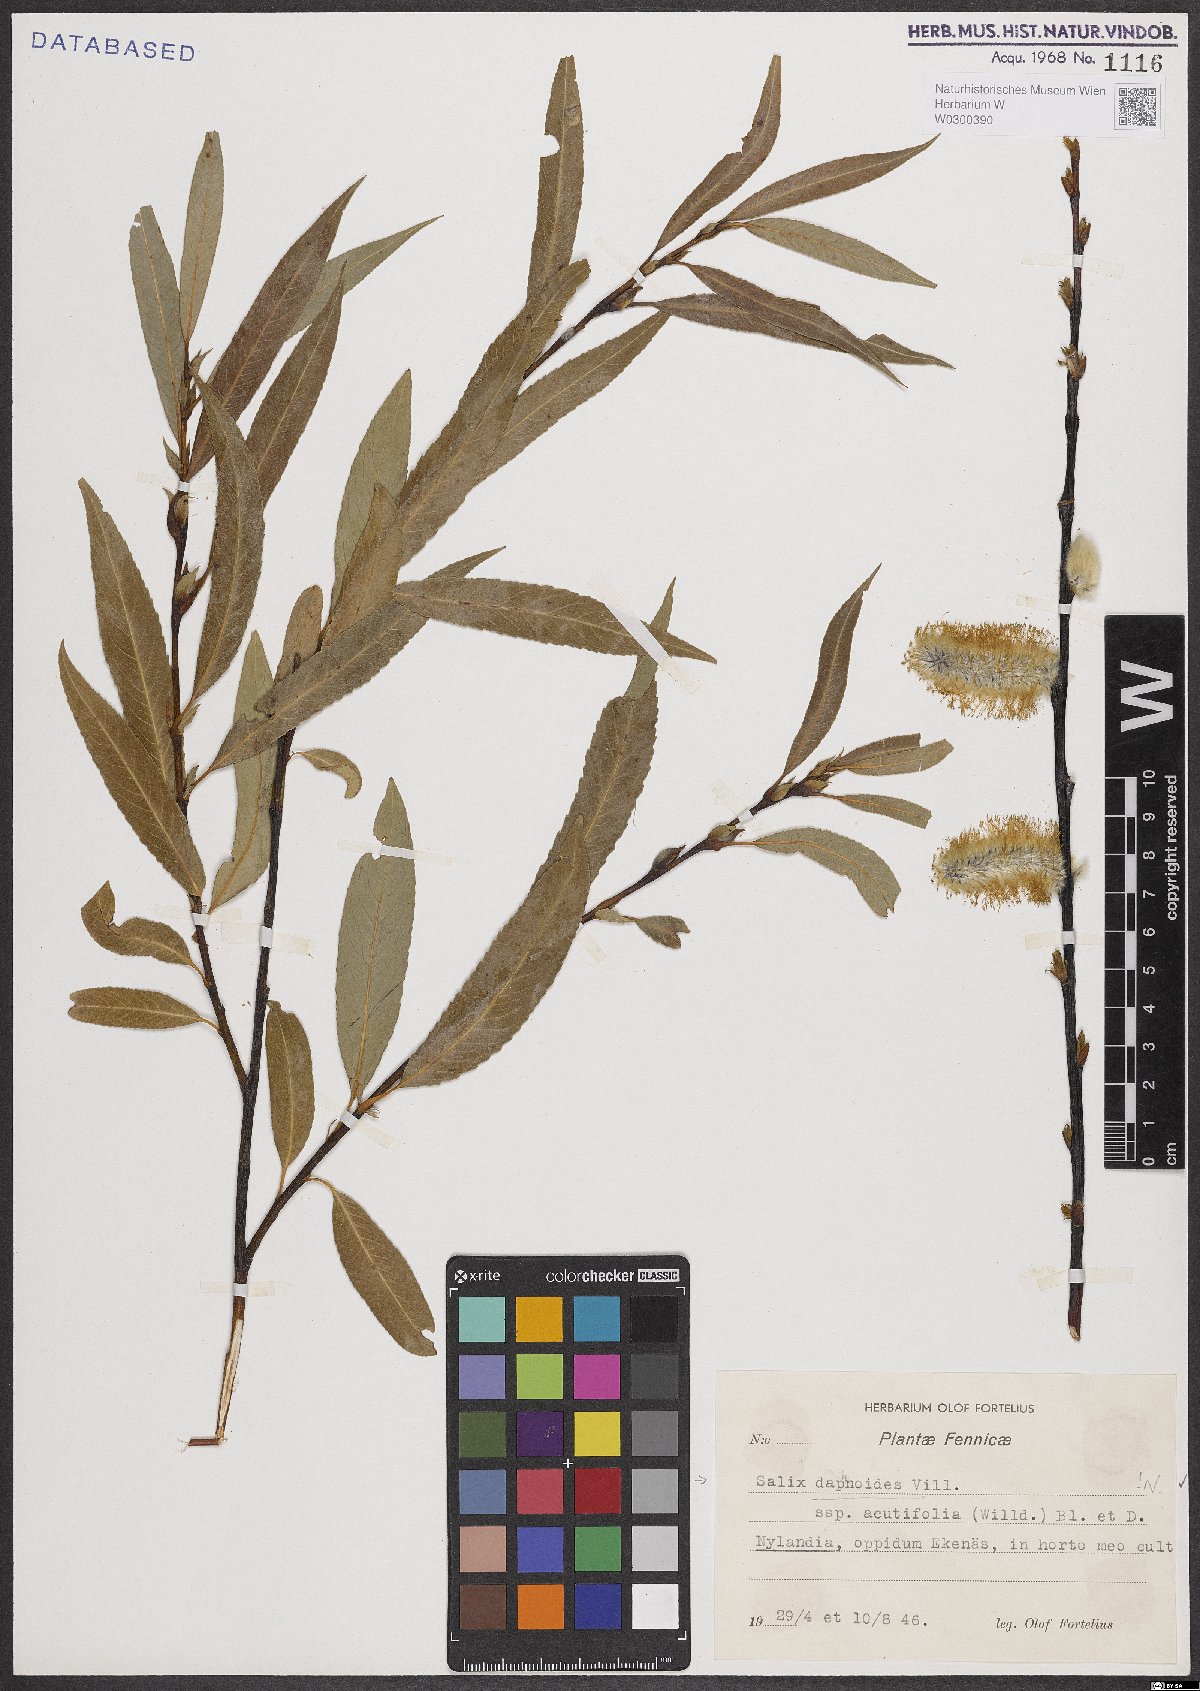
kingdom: Plantae
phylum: Tracheophyta
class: Magnoliopsida
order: Malpighiales
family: Salicaceae
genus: Salix
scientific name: Salix daphnoides
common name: European violet-willow
